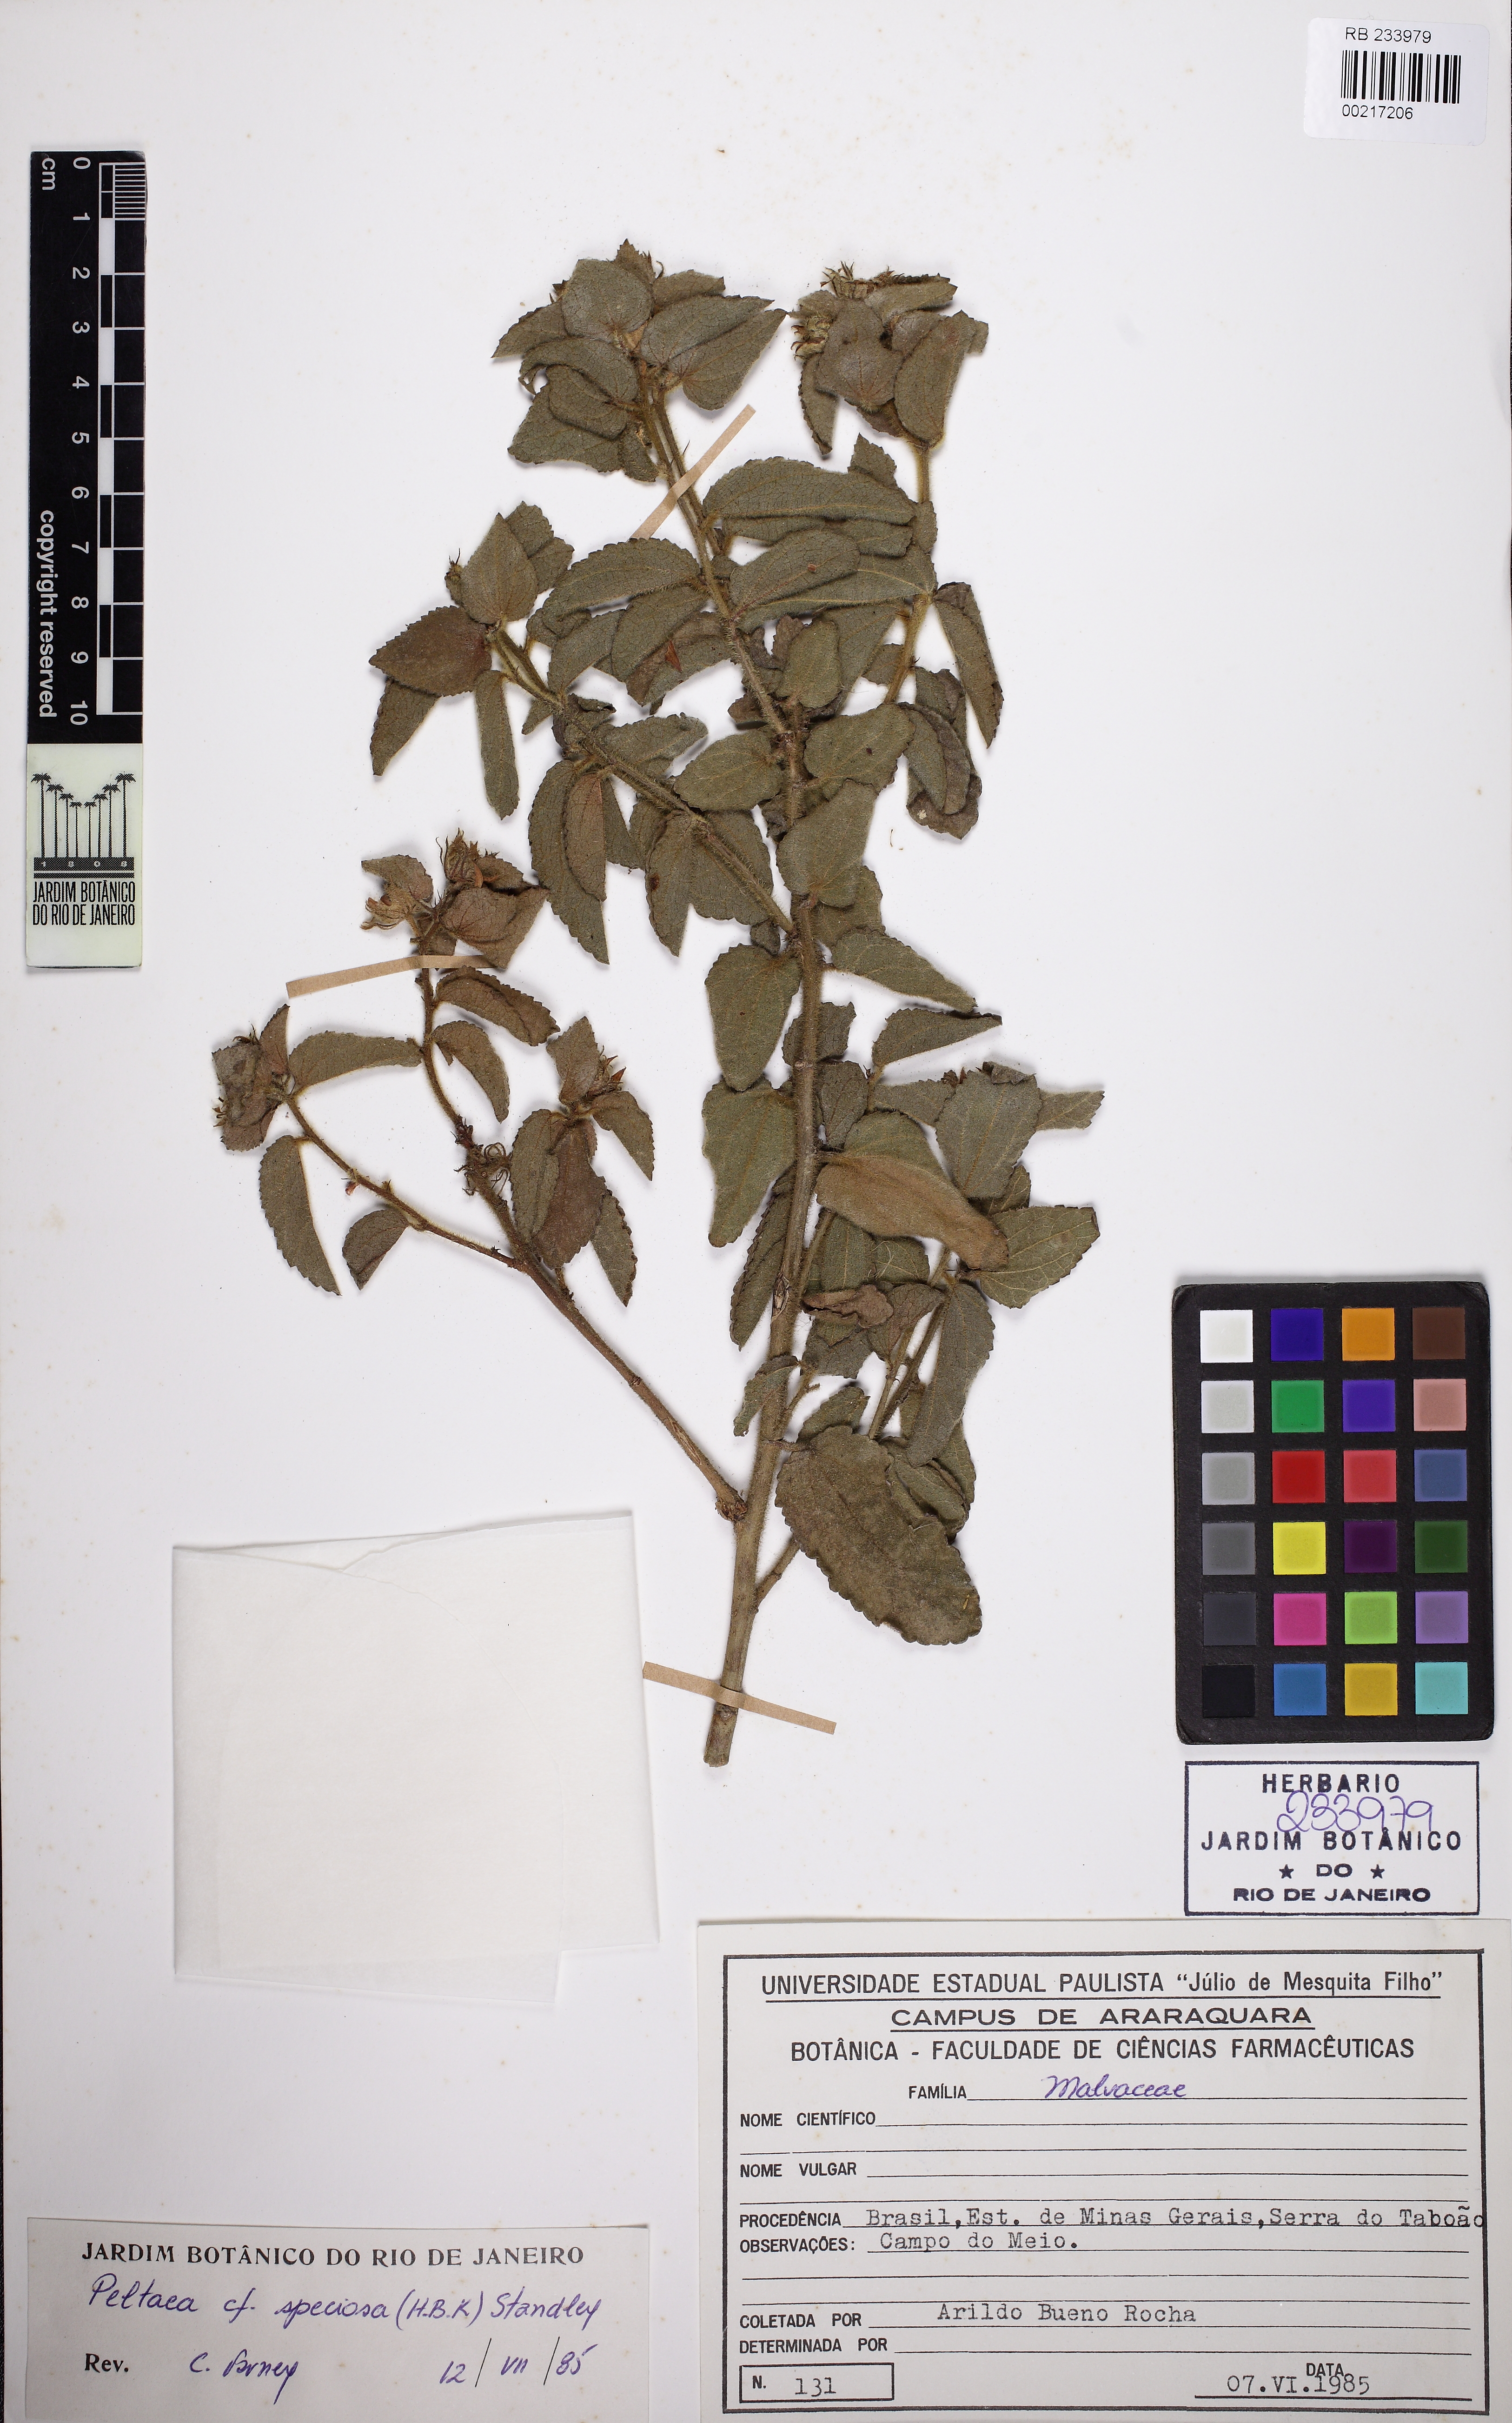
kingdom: Plantae
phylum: Tracheophyta
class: Magnoliopsida
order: Malvales
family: Malvaceae
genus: Peltaea
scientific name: Peltaea speciosa
